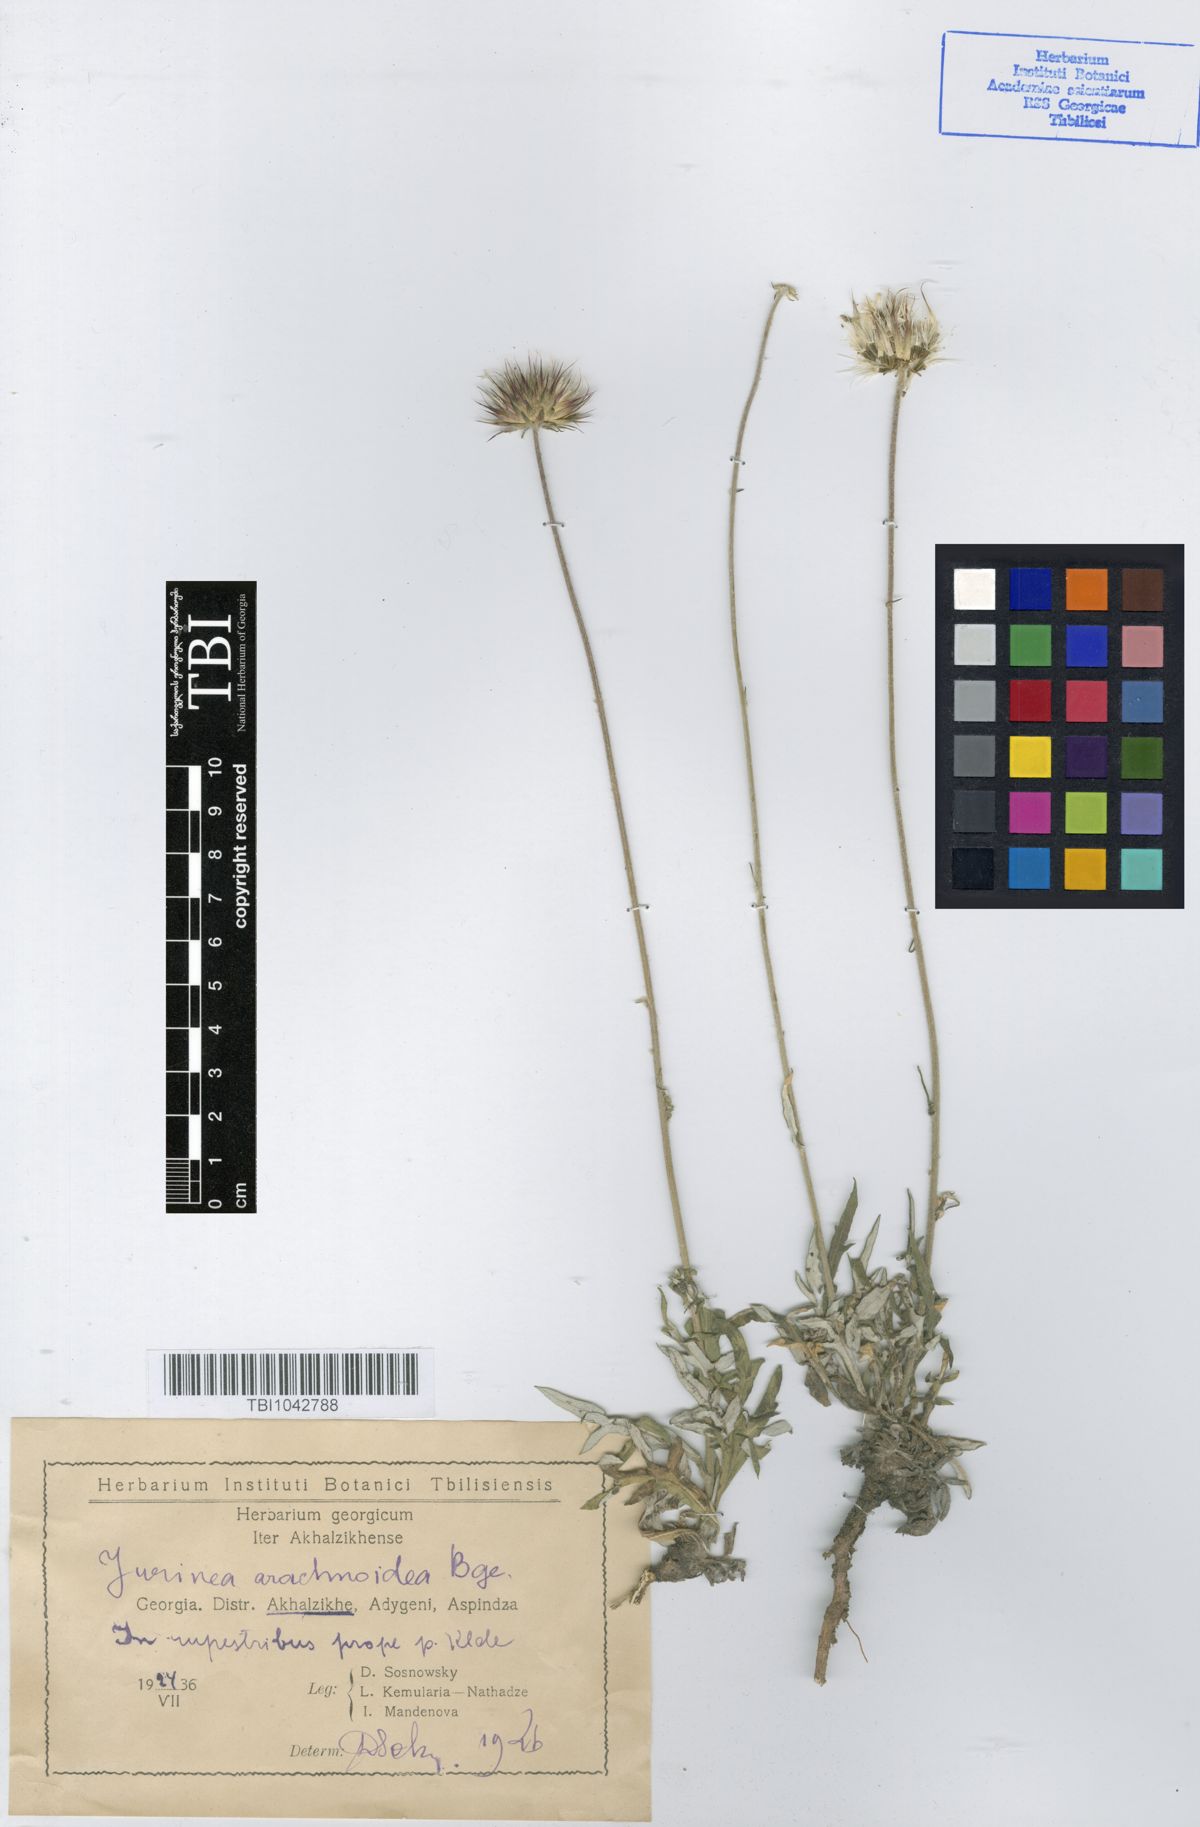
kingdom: Plantae
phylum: Tracheophyta
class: Magnoliopsida
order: Asterales
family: Asteraceae
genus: Jurinea
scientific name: Jurinea blanda
